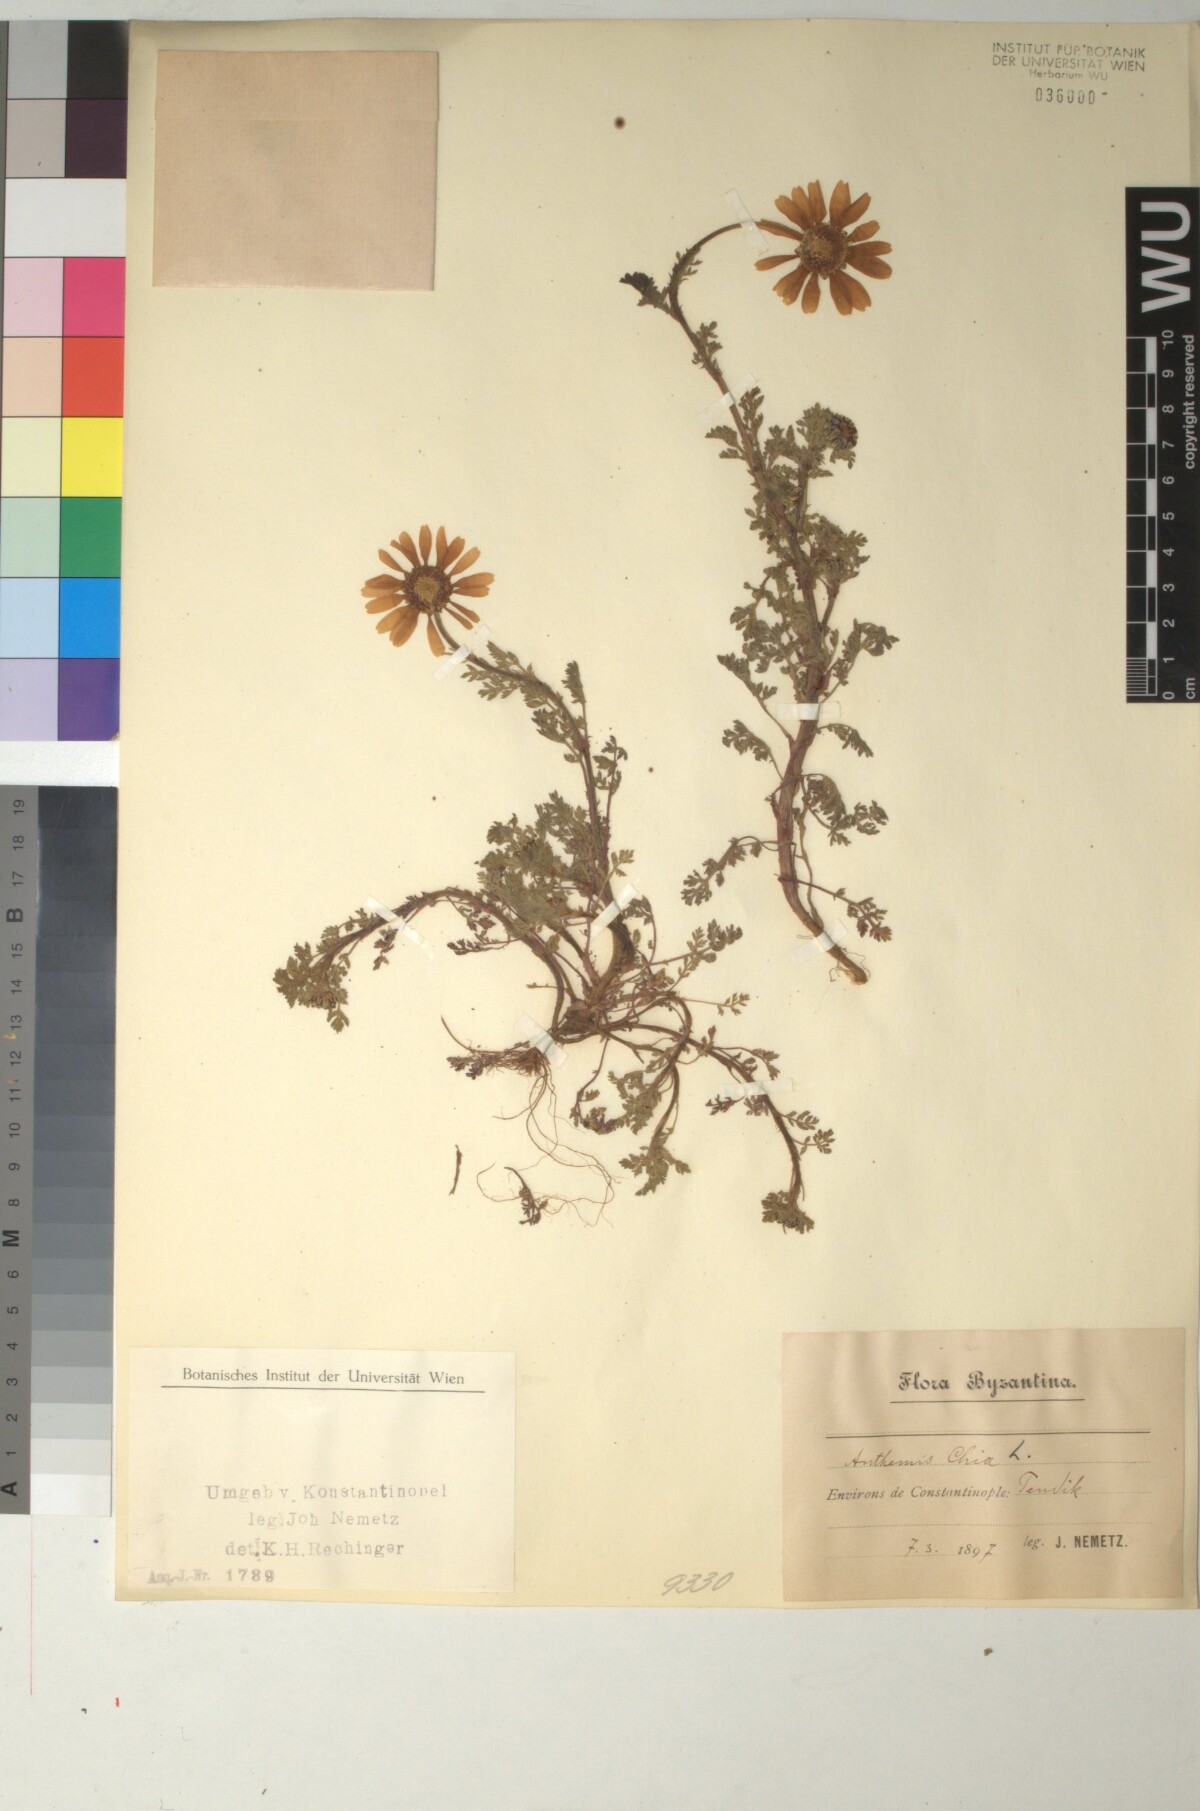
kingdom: Plantae
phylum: Tracheophyta
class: Magnoliopsida
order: Asterales
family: Asteraceae
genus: Anthemis
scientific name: Anthemis chia
